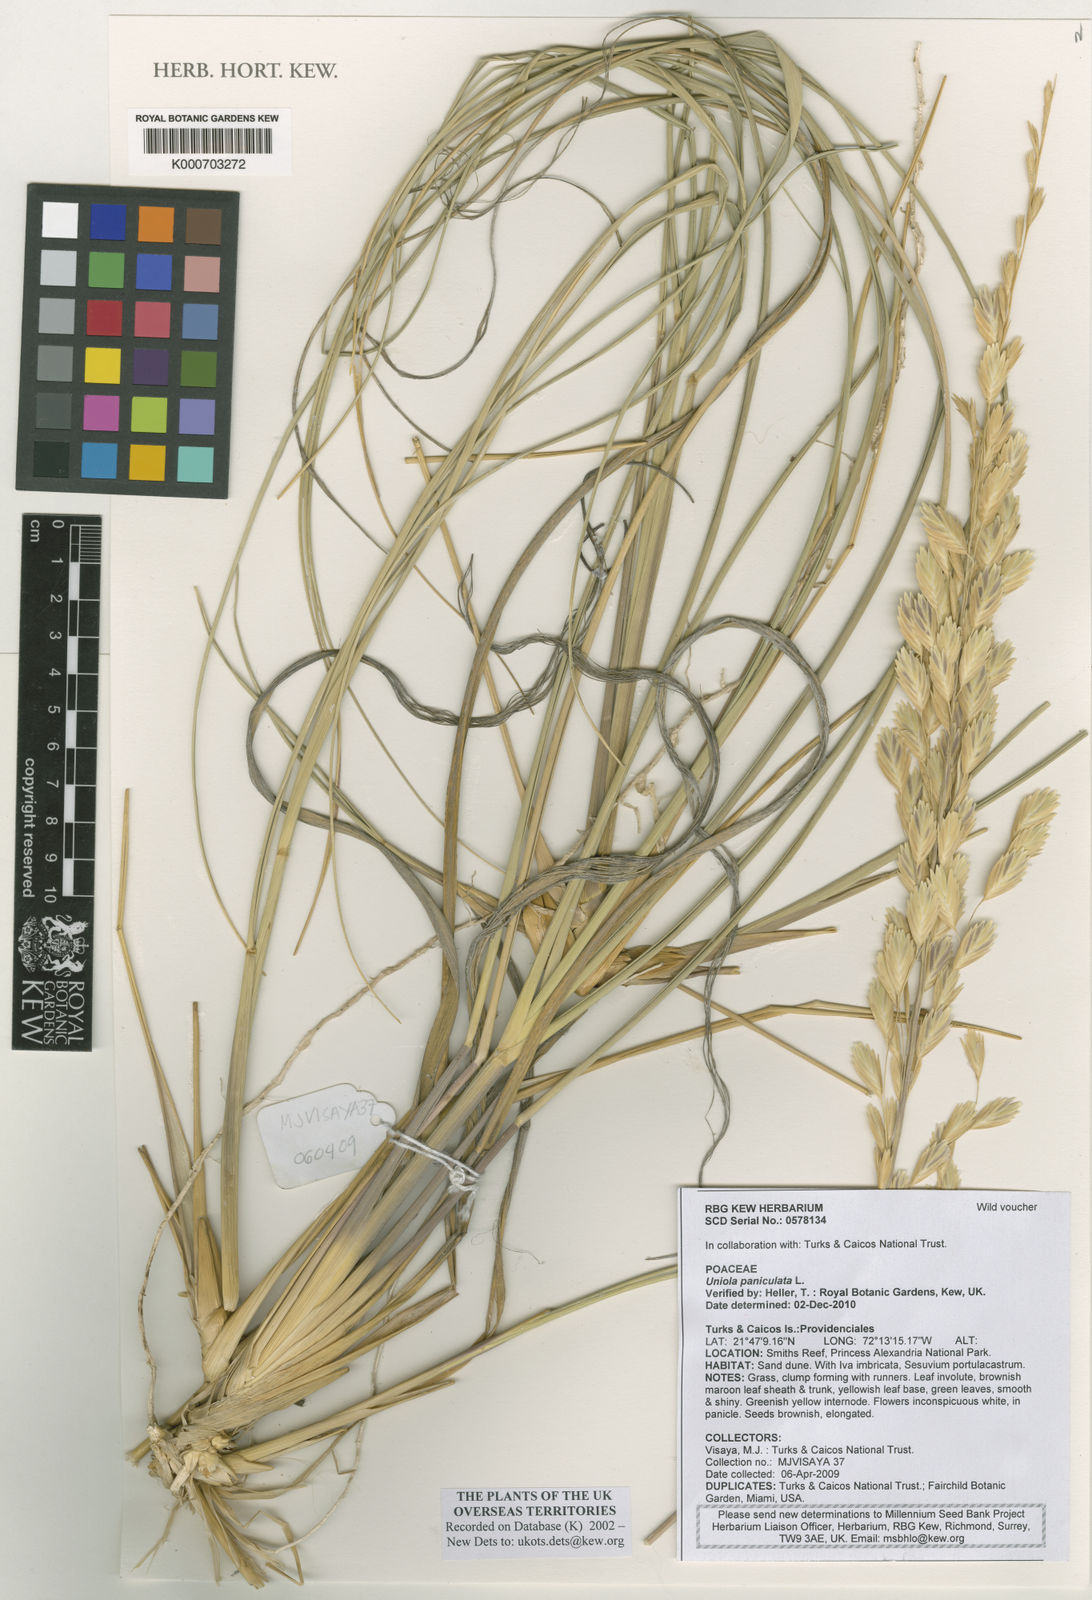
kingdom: Plantae
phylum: Tracheophyta
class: Liliopsida
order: Poales
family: Poaceae
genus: Uniola
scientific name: Uniola paniculata
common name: Seaside-oats
